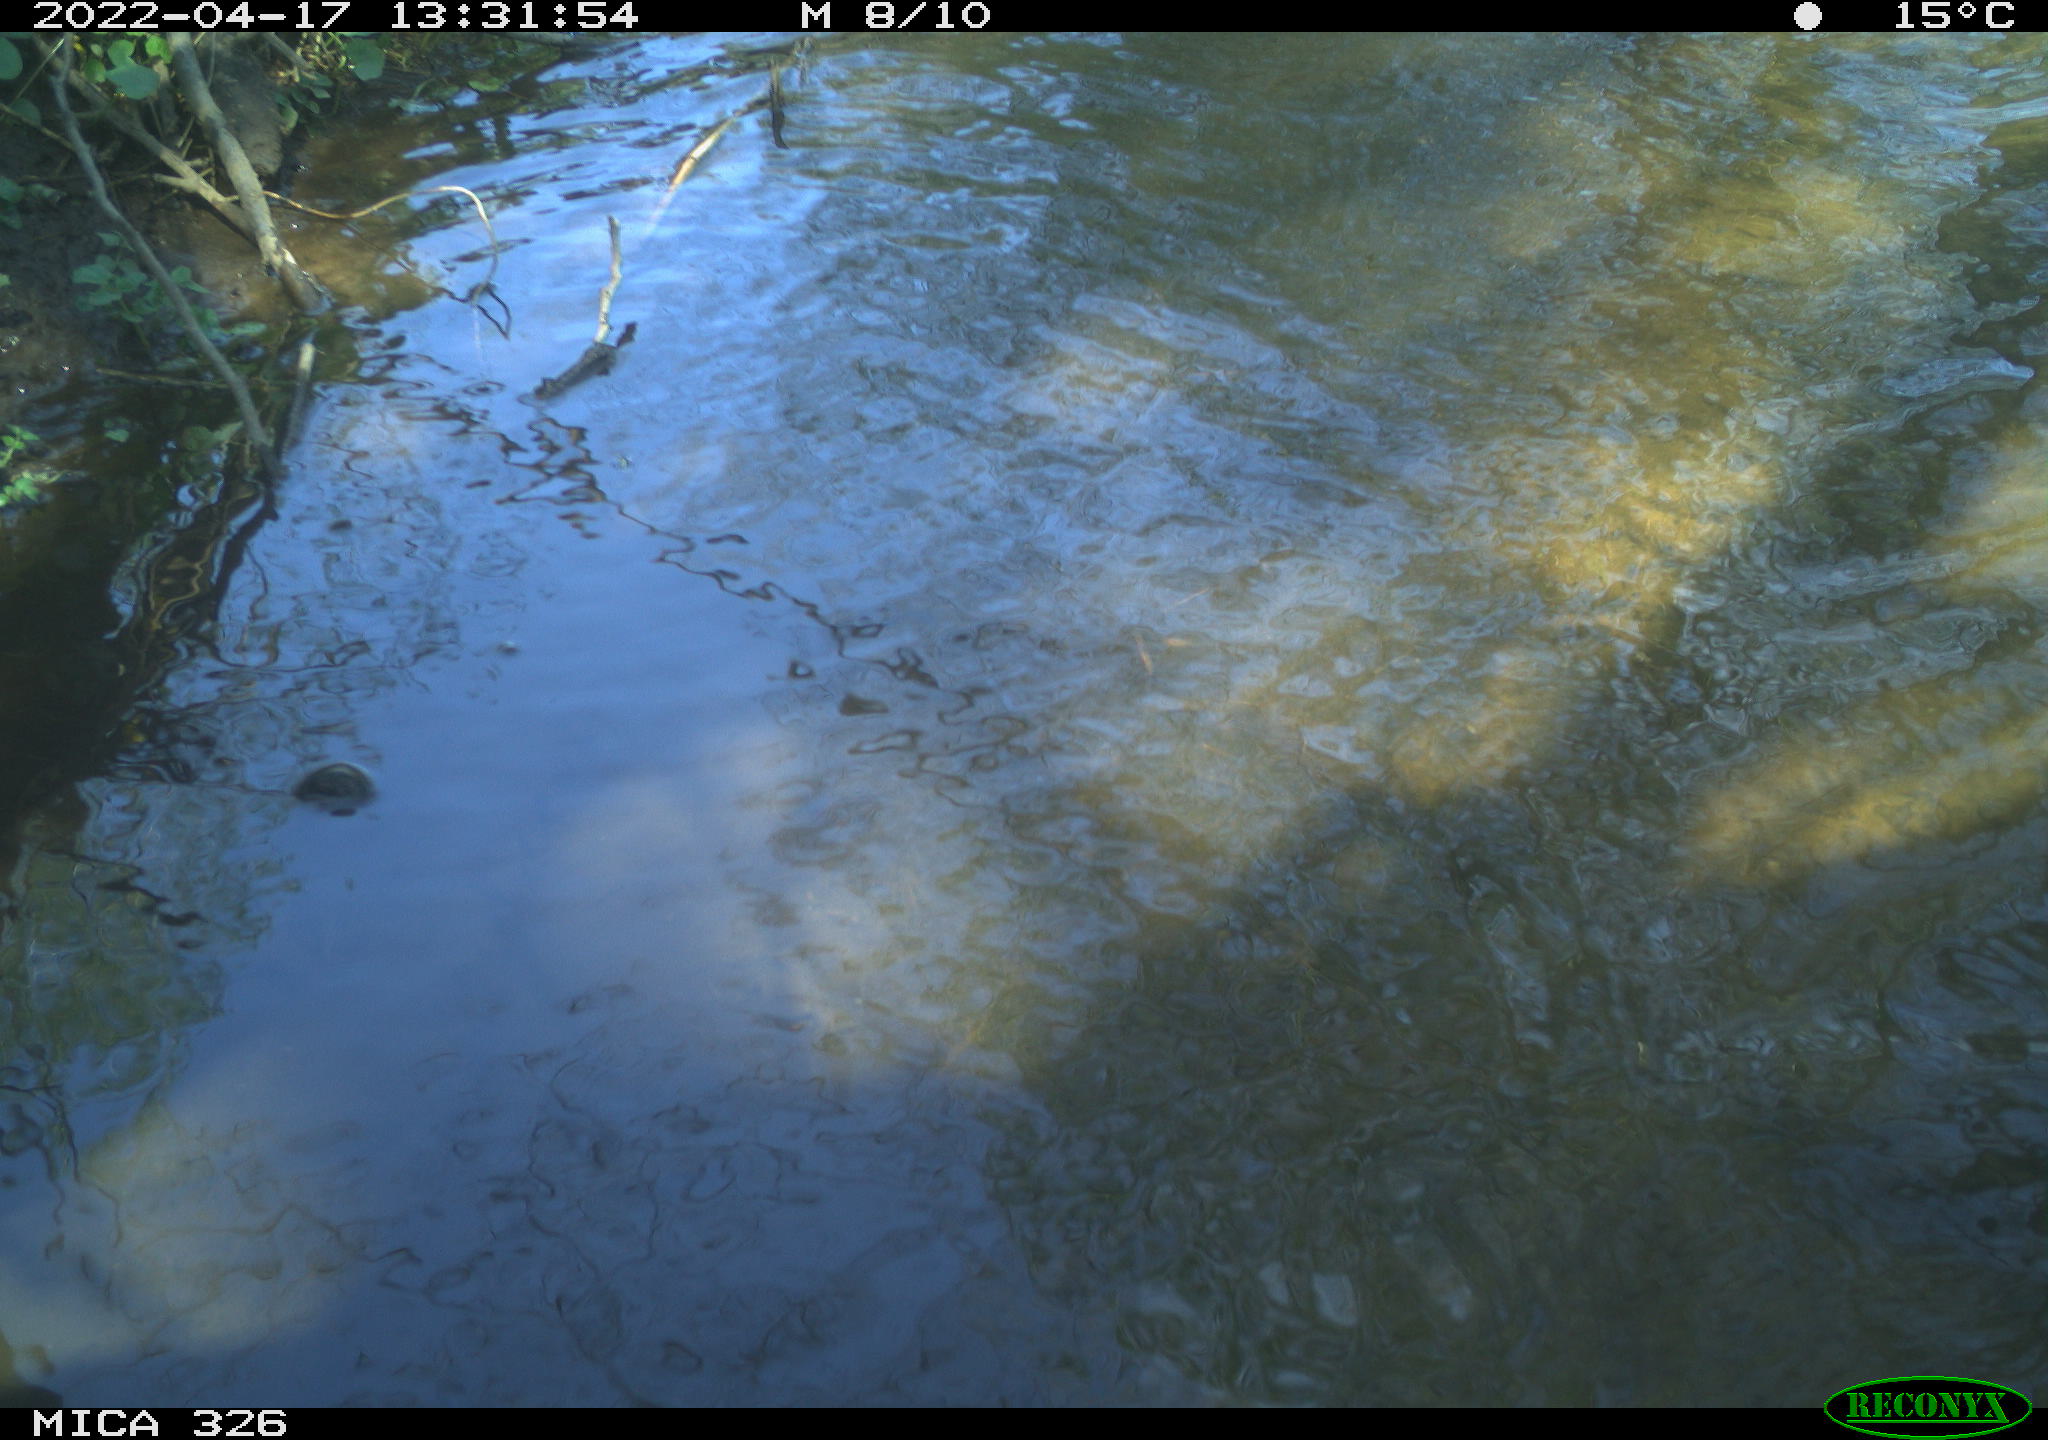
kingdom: Animalia
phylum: Chordata
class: Mammalia
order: Rodentia
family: Cricetidae
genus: Ondatra
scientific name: Ondatra zibethicus
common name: Muskrat
